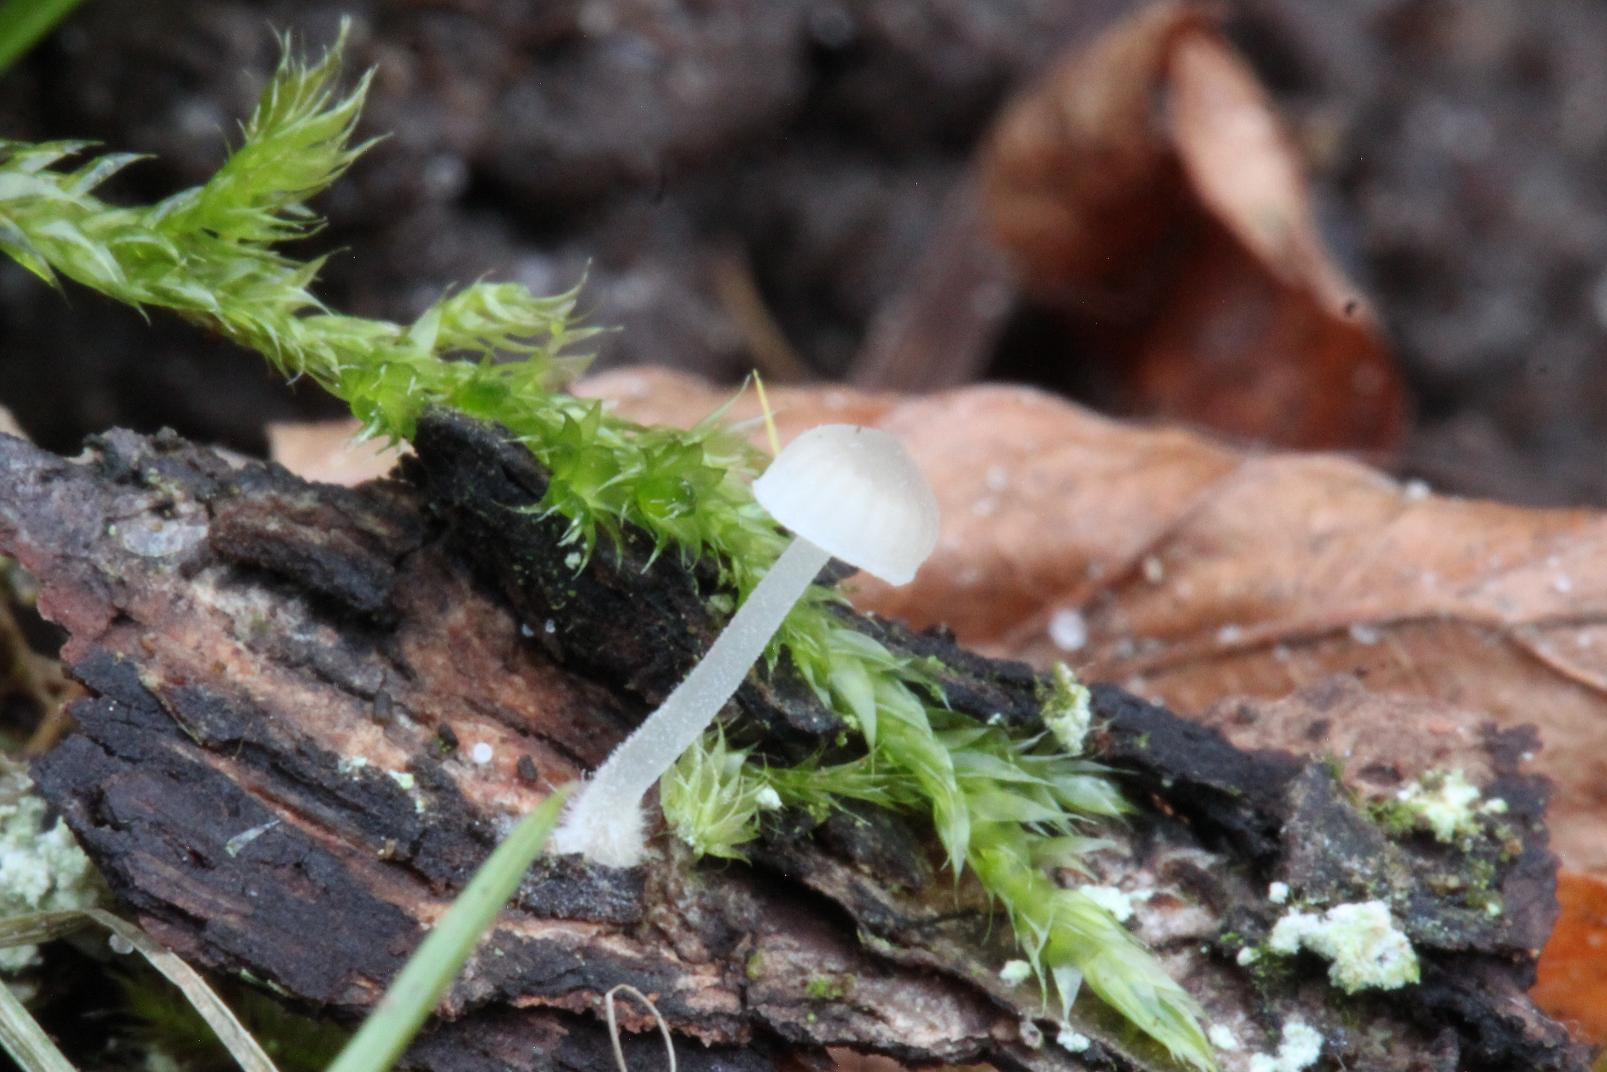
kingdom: Fungi
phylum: Basidiomycota
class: Agaricomycetes
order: Agaricales
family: Porotheleaceae
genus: Phloeomana
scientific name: Phloeomana hiemalis
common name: sen huesvamp
